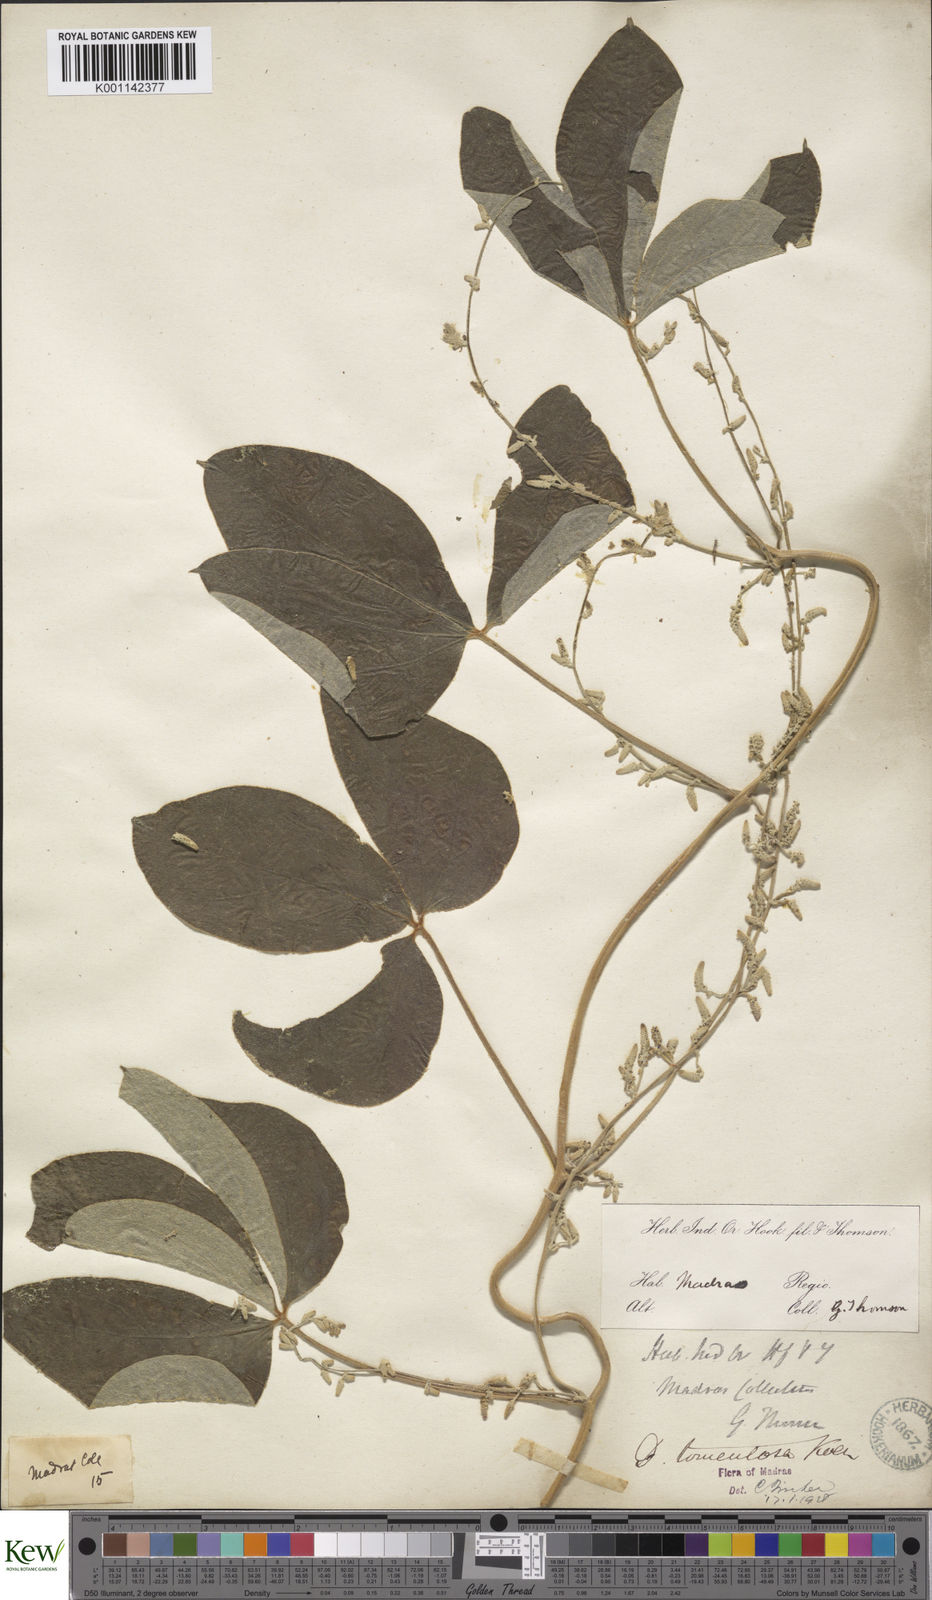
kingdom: Plantae
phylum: Tracheophyta
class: Liliopsida
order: Dioscoreales
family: Dioscoreaceae
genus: Dioscorea
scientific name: Dioscorea
